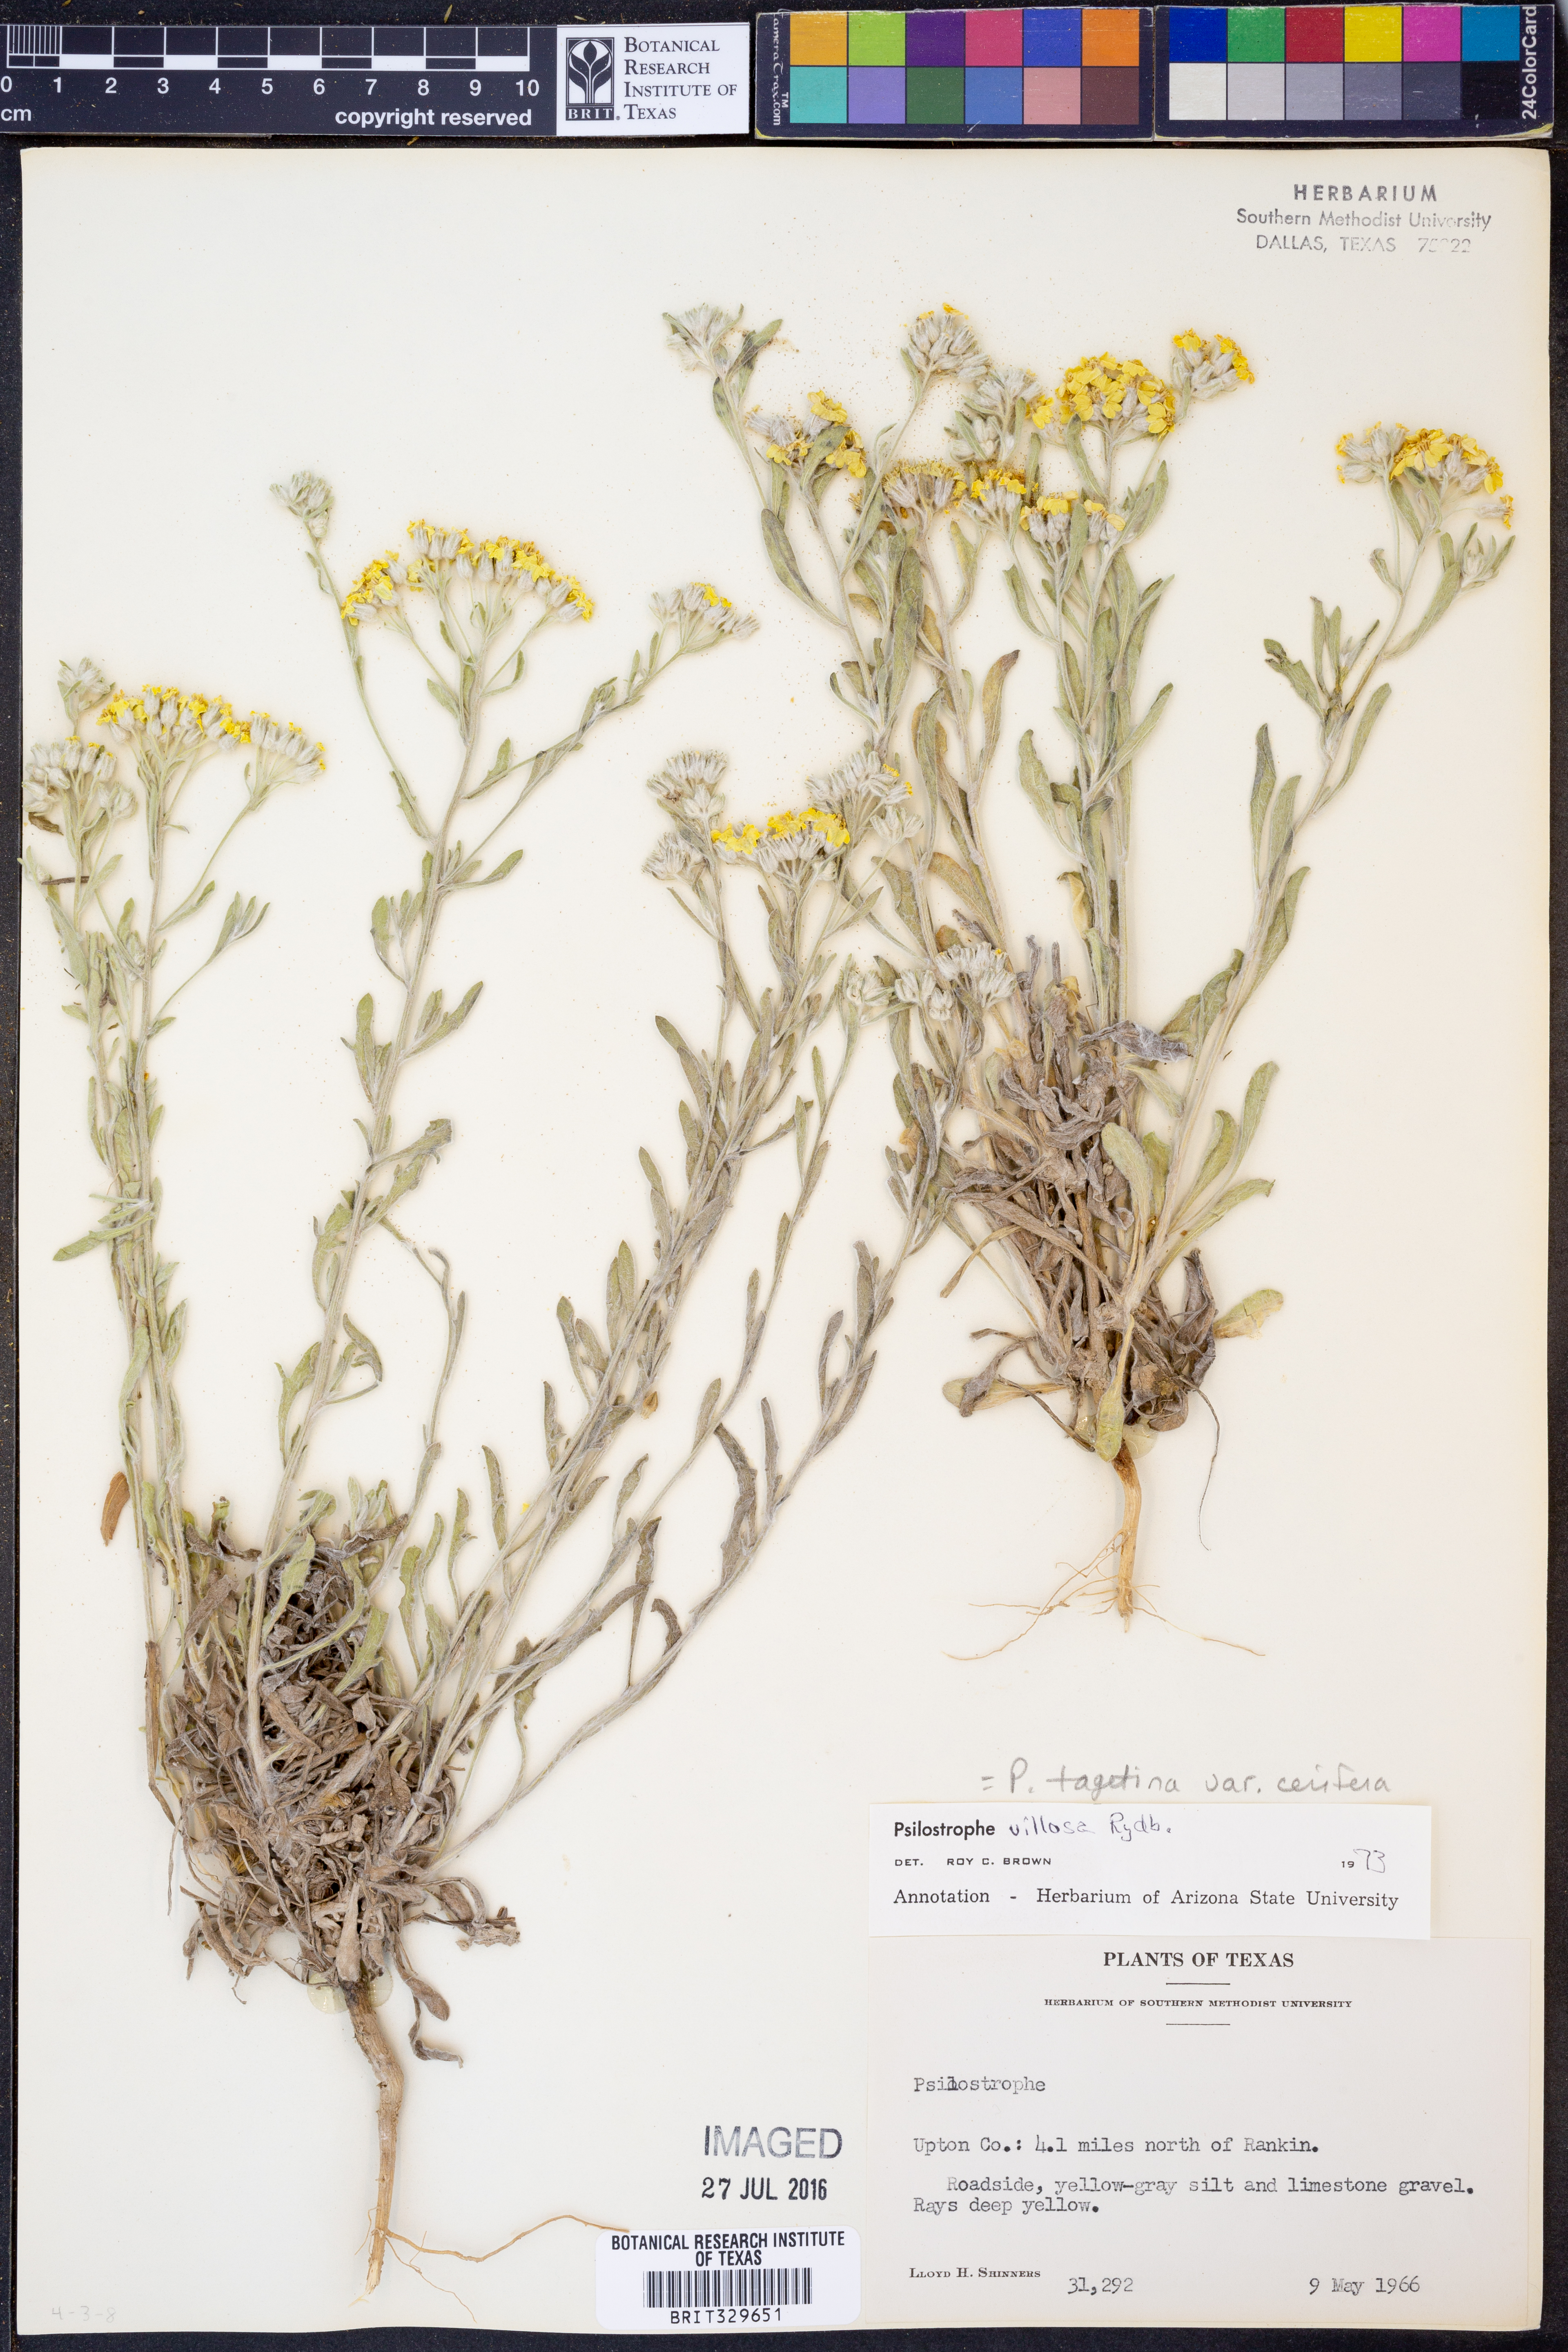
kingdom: Plantae
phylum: Tracheophyta
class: Magnoliopsida
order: Asterales
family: Asteraceae
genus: Psilostrophe
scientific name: Psilostrophe villosa
